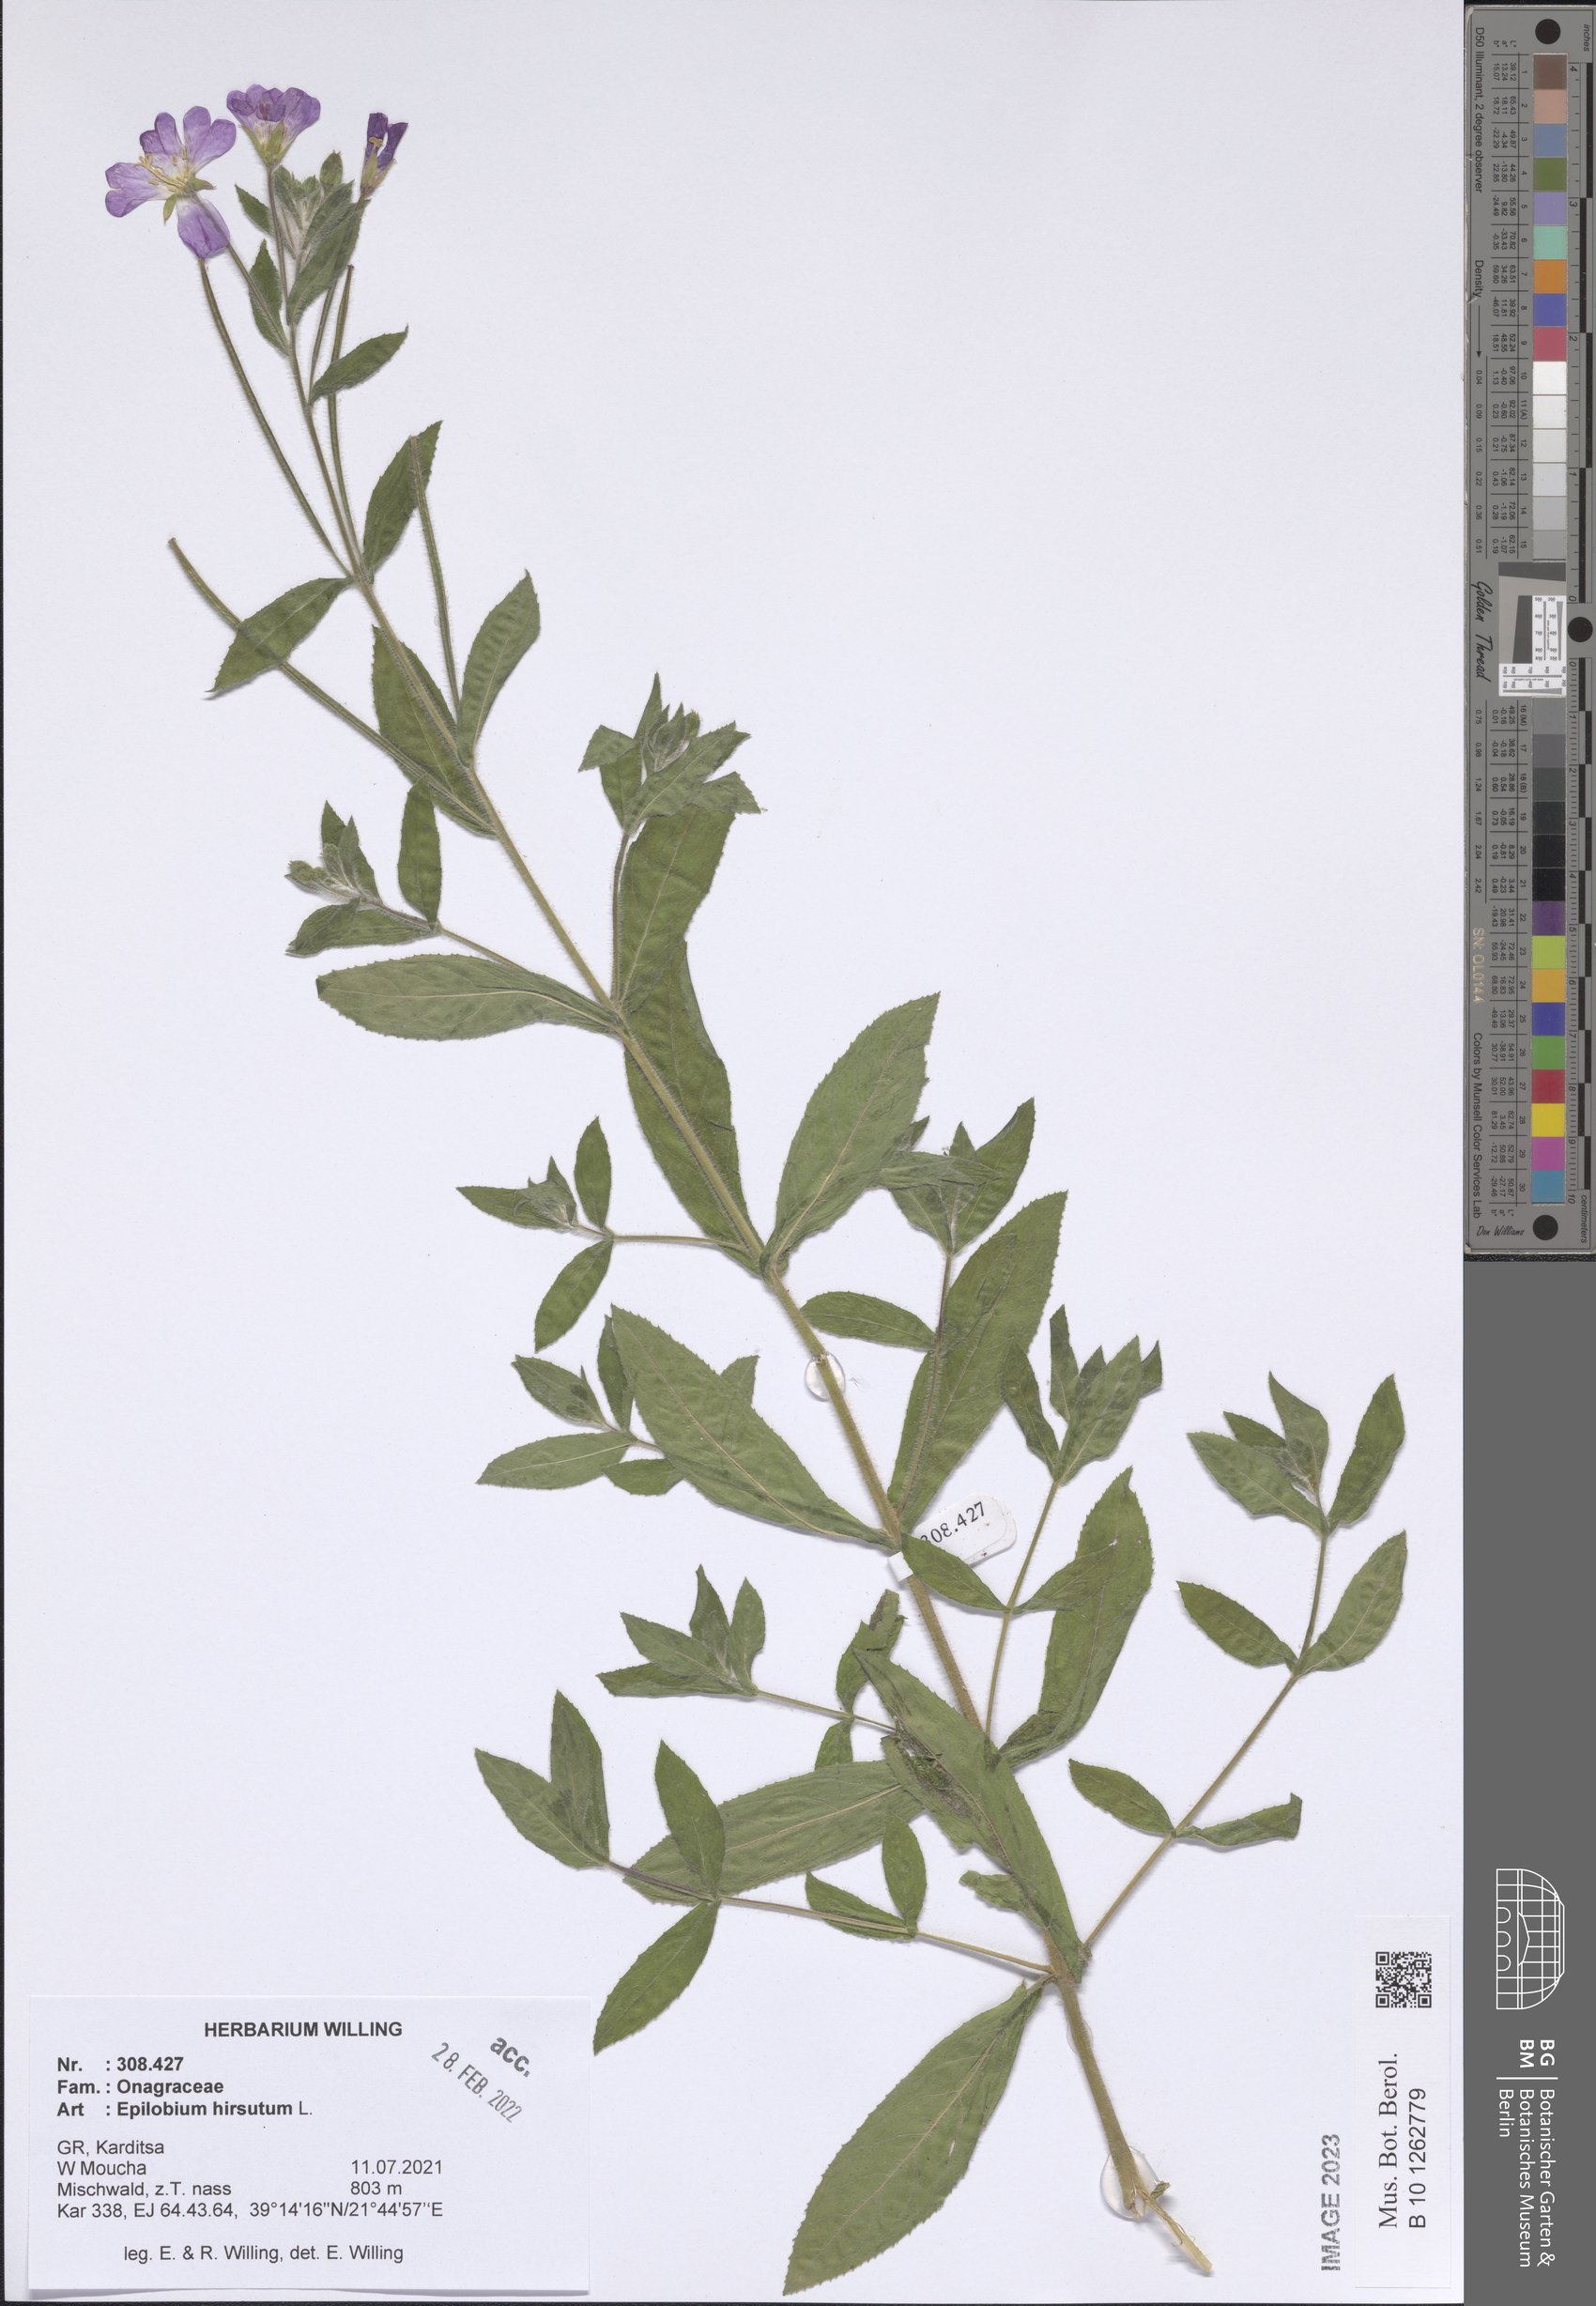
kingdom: Plantae
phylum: Tracheophyta
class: Magnoliopsida
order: Myrtales
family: Onagraceae
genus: Epilobium
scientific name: Epilobium hirsutum
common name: Great willowherb
